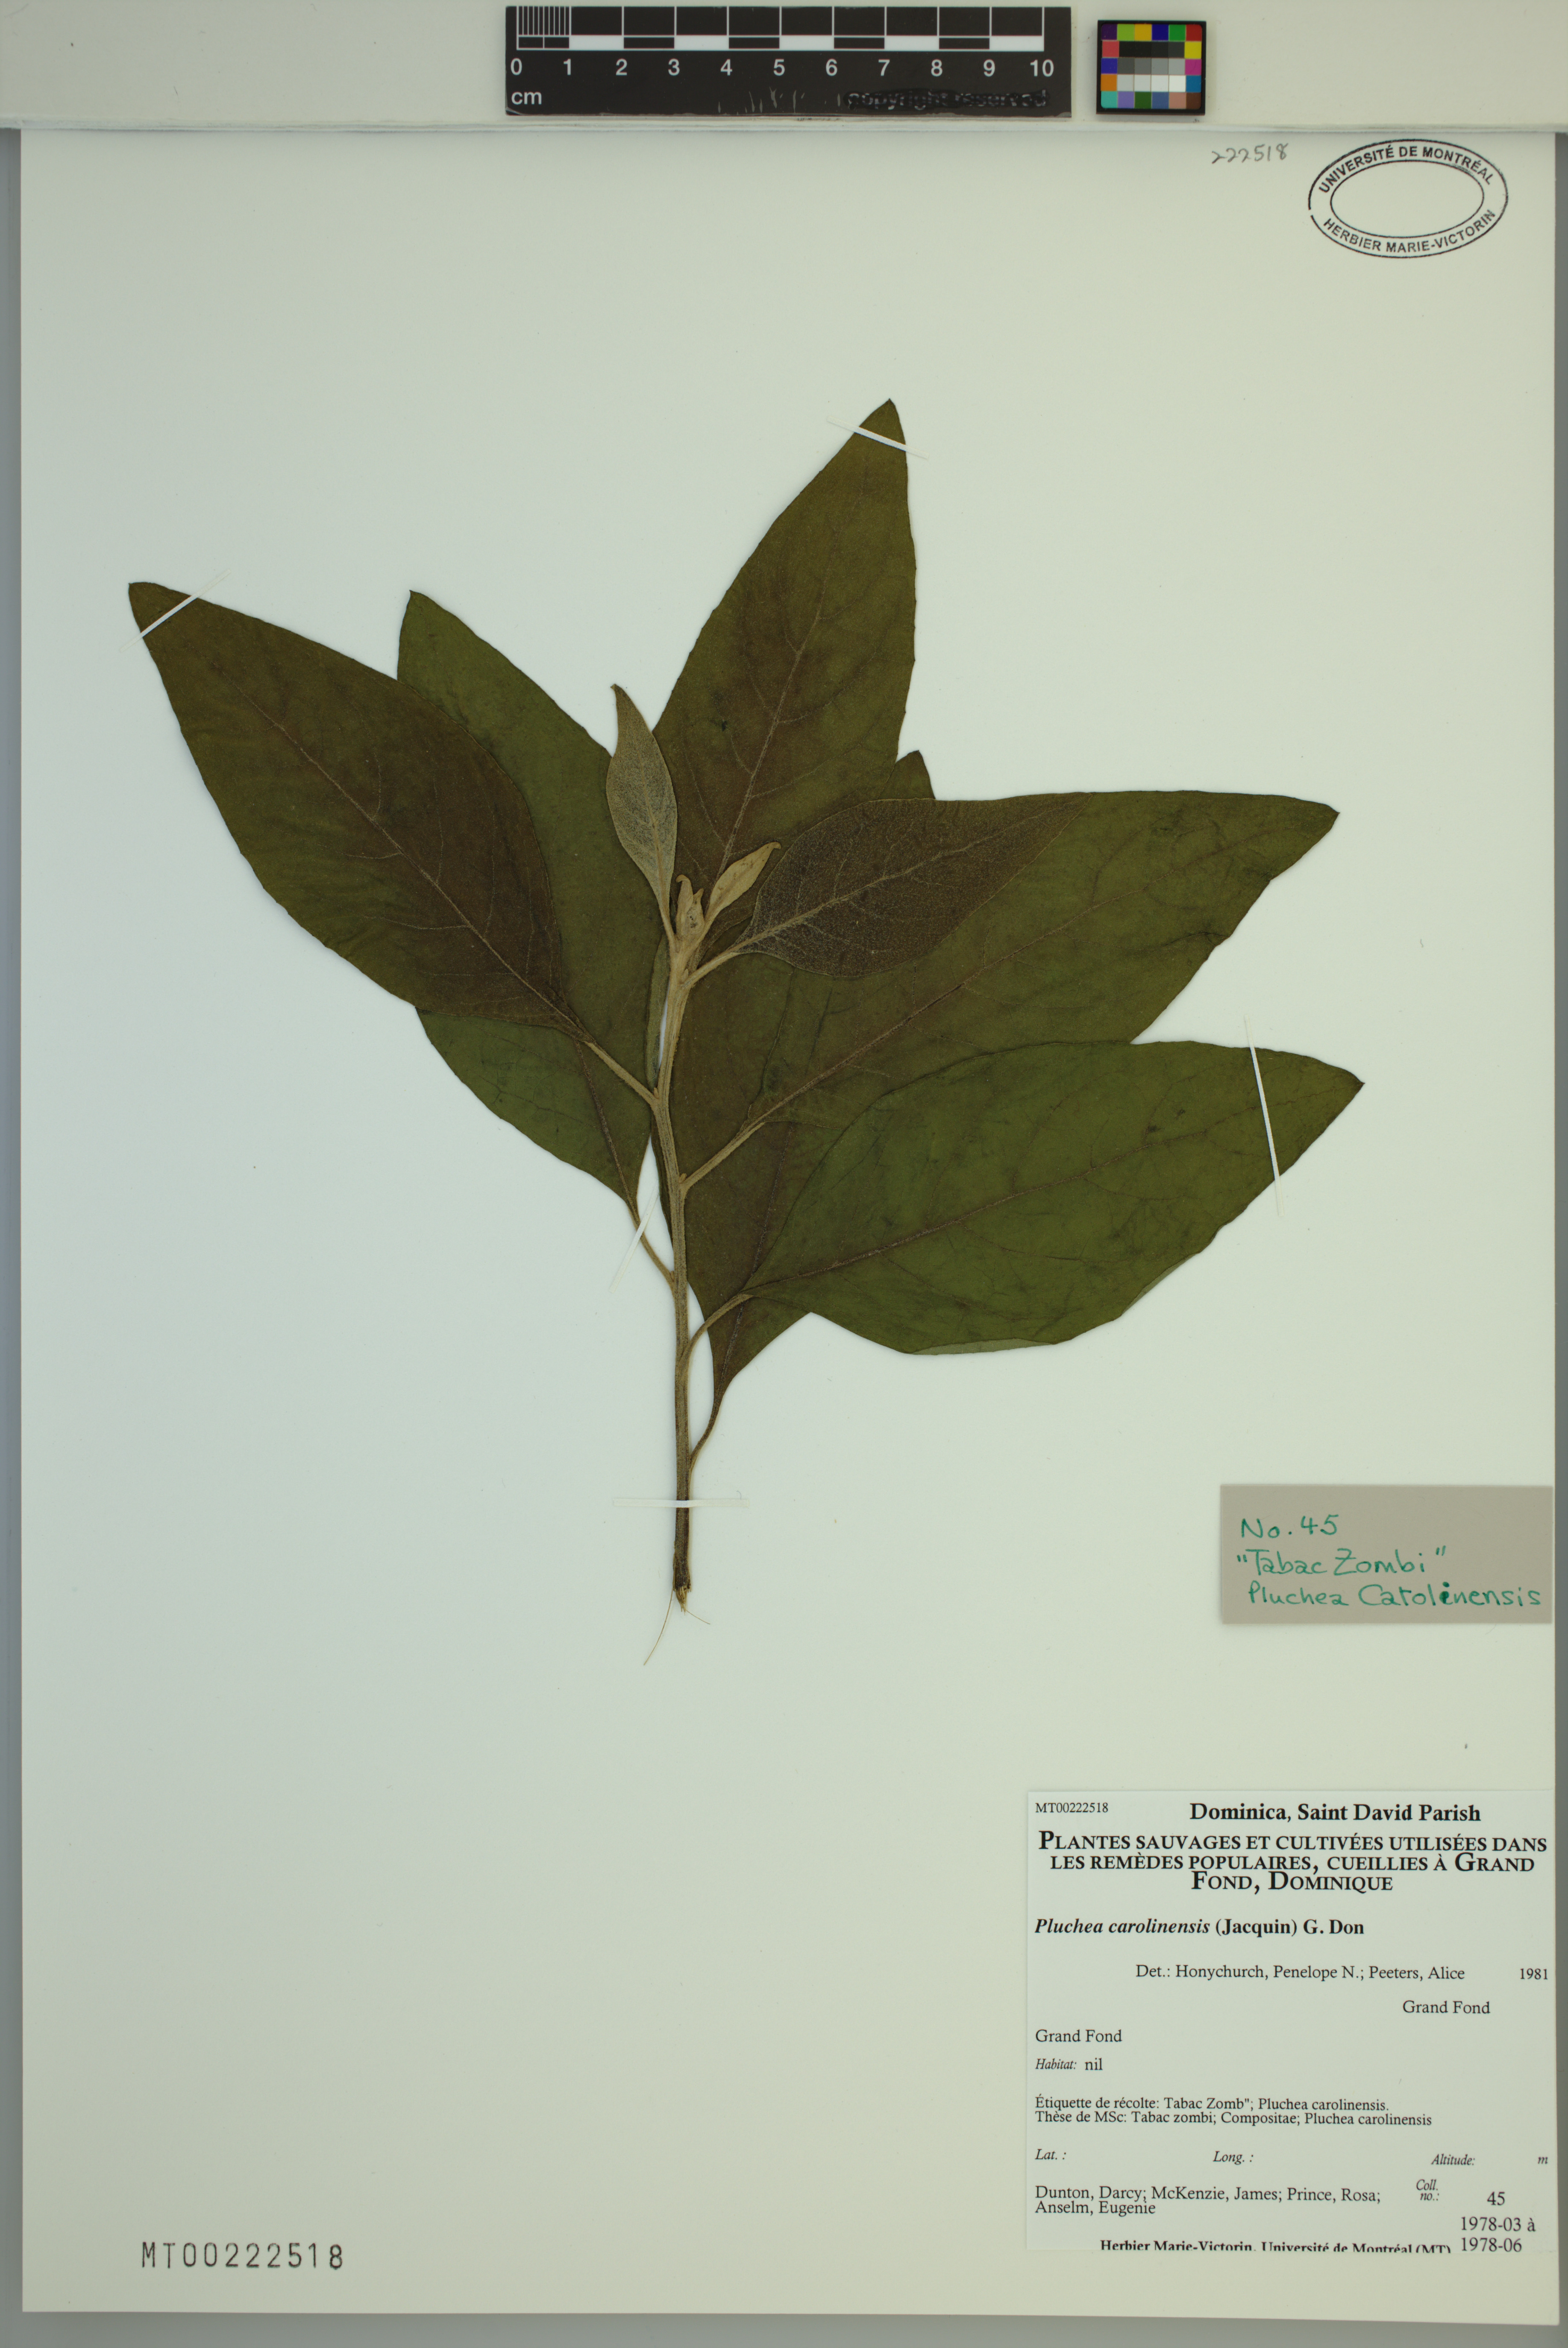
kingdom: Plantae
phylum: Tracheophyta
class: Magnoliopsida
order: Asterales
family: Asteraceae
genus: Pluchea
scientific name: Pluchea carolinensis
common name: Marsh fleabane
